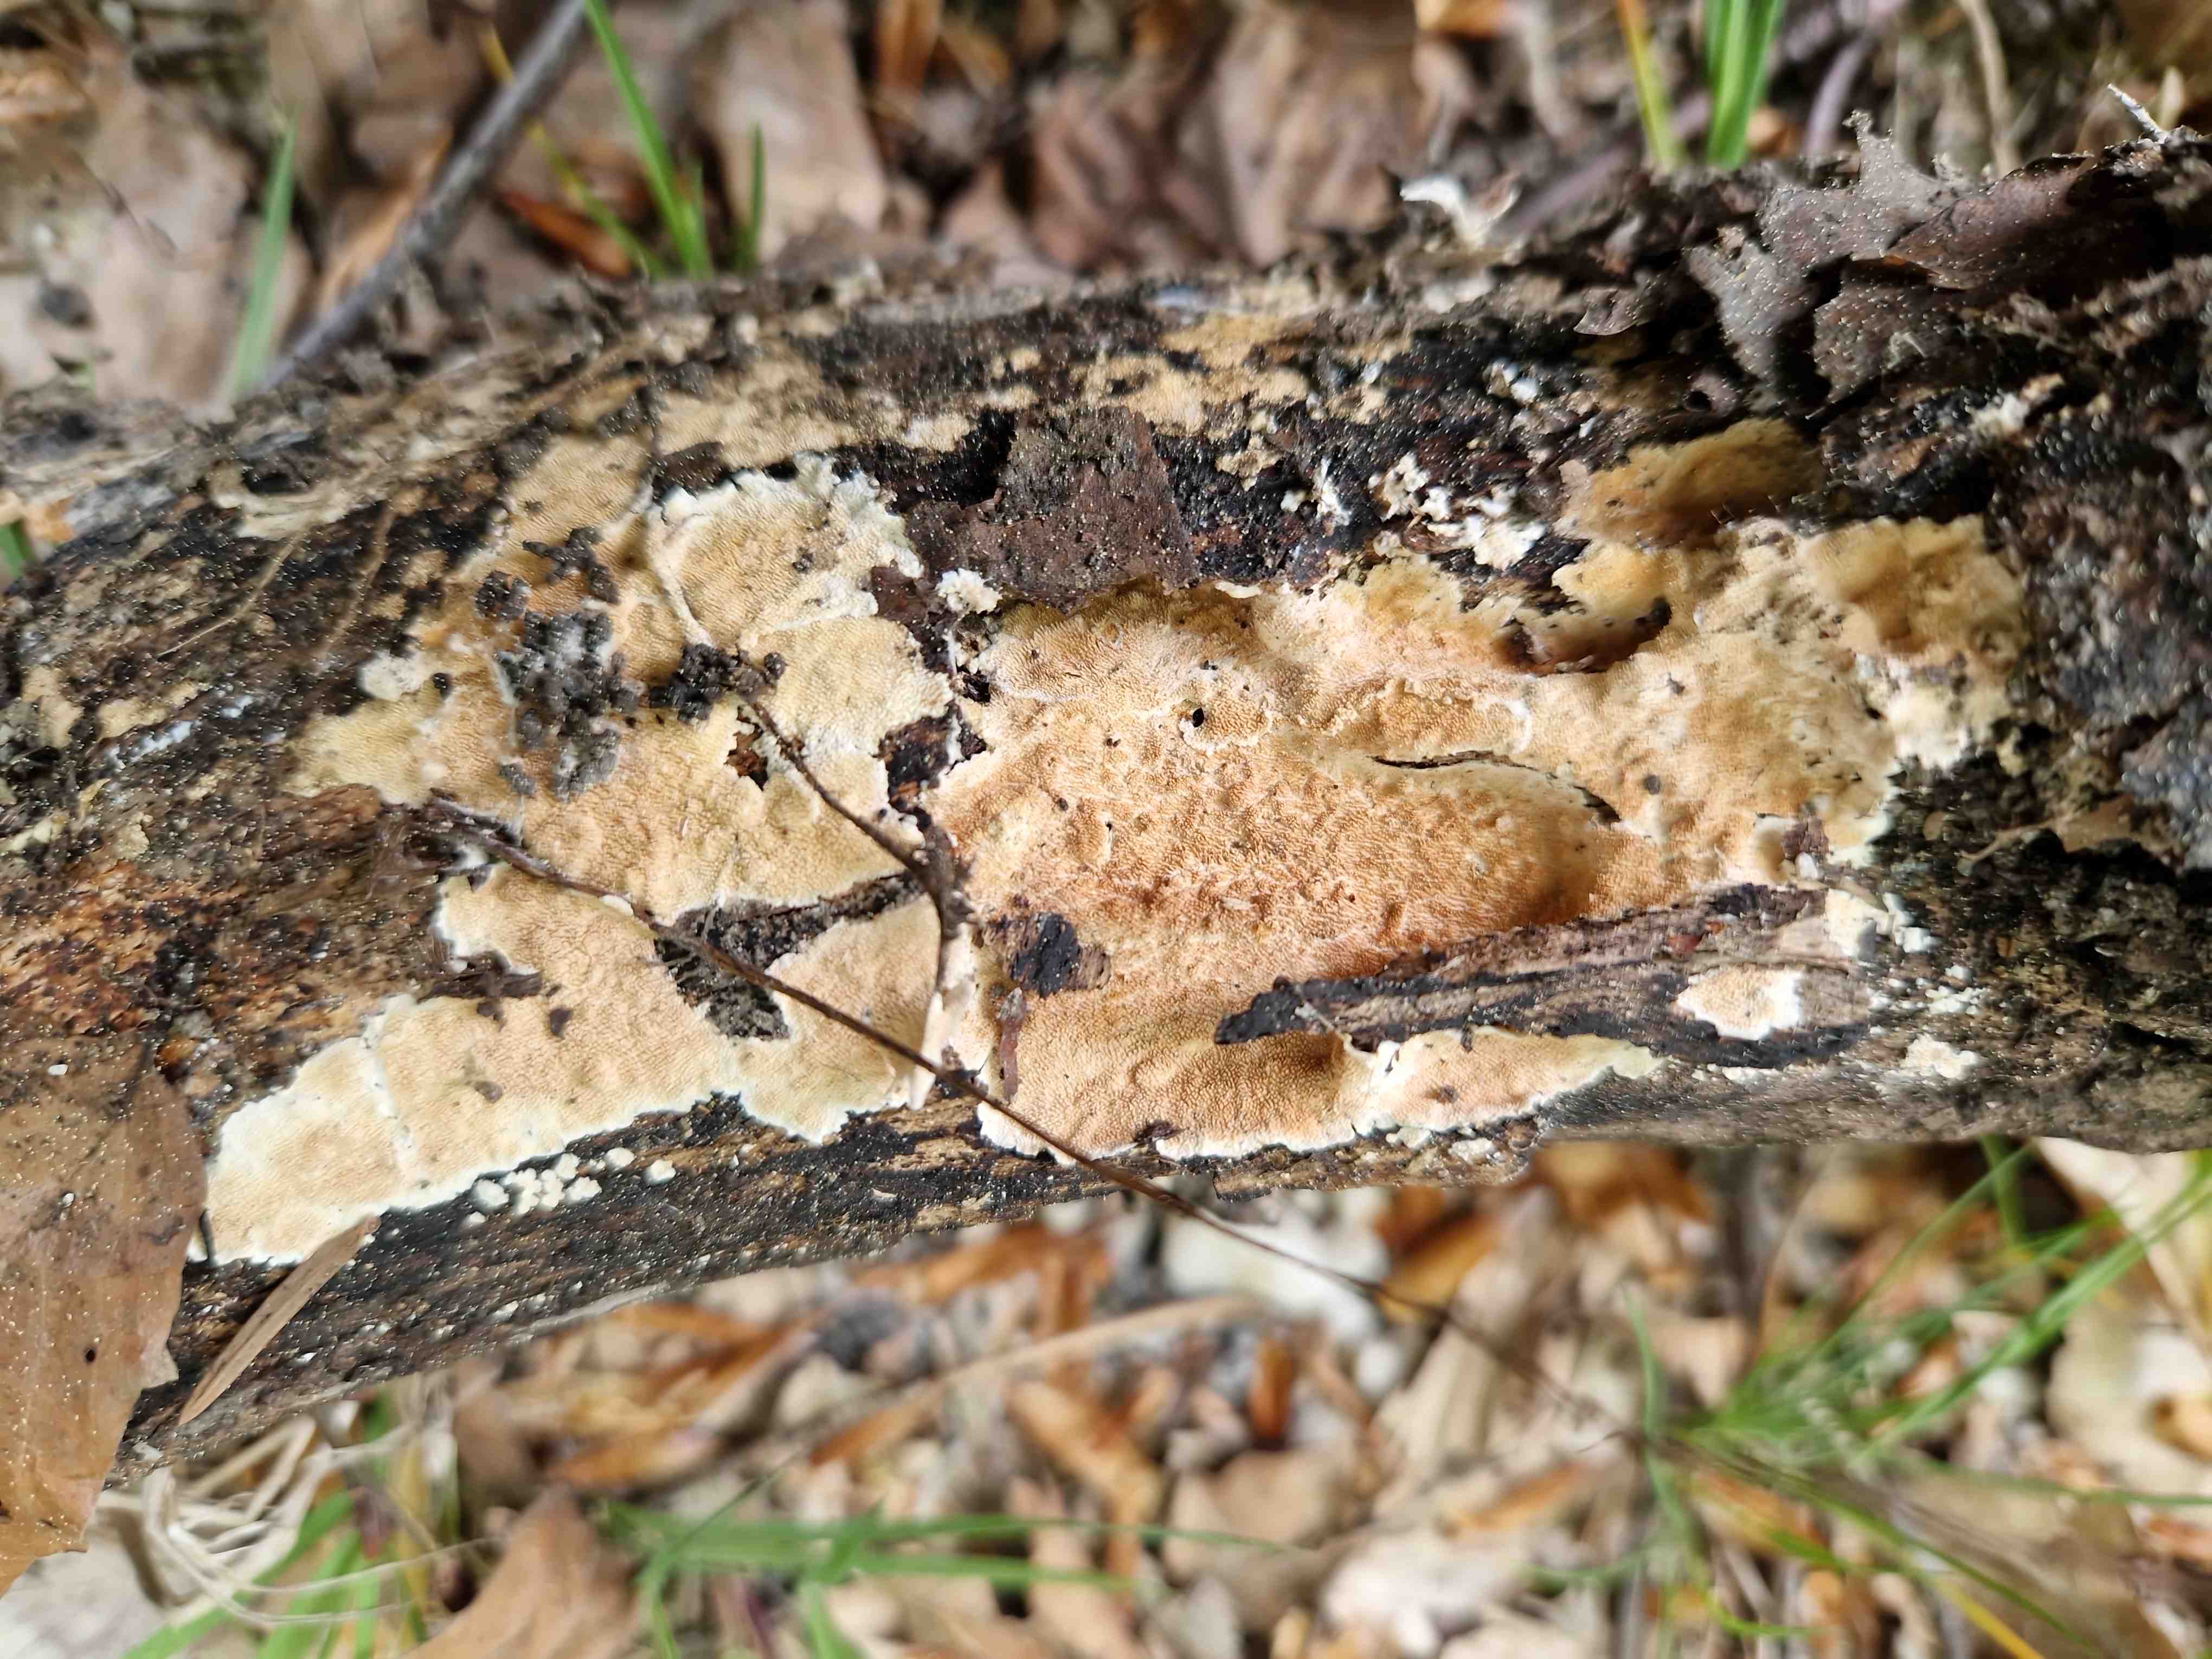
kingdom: Fungi
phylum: Basidiomycota
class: Agaricomycetes
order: Polyporales
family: Steccherinaceae
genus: Steccherinum
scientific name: Steccherinum ochraceum
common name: almindelig skønpig
